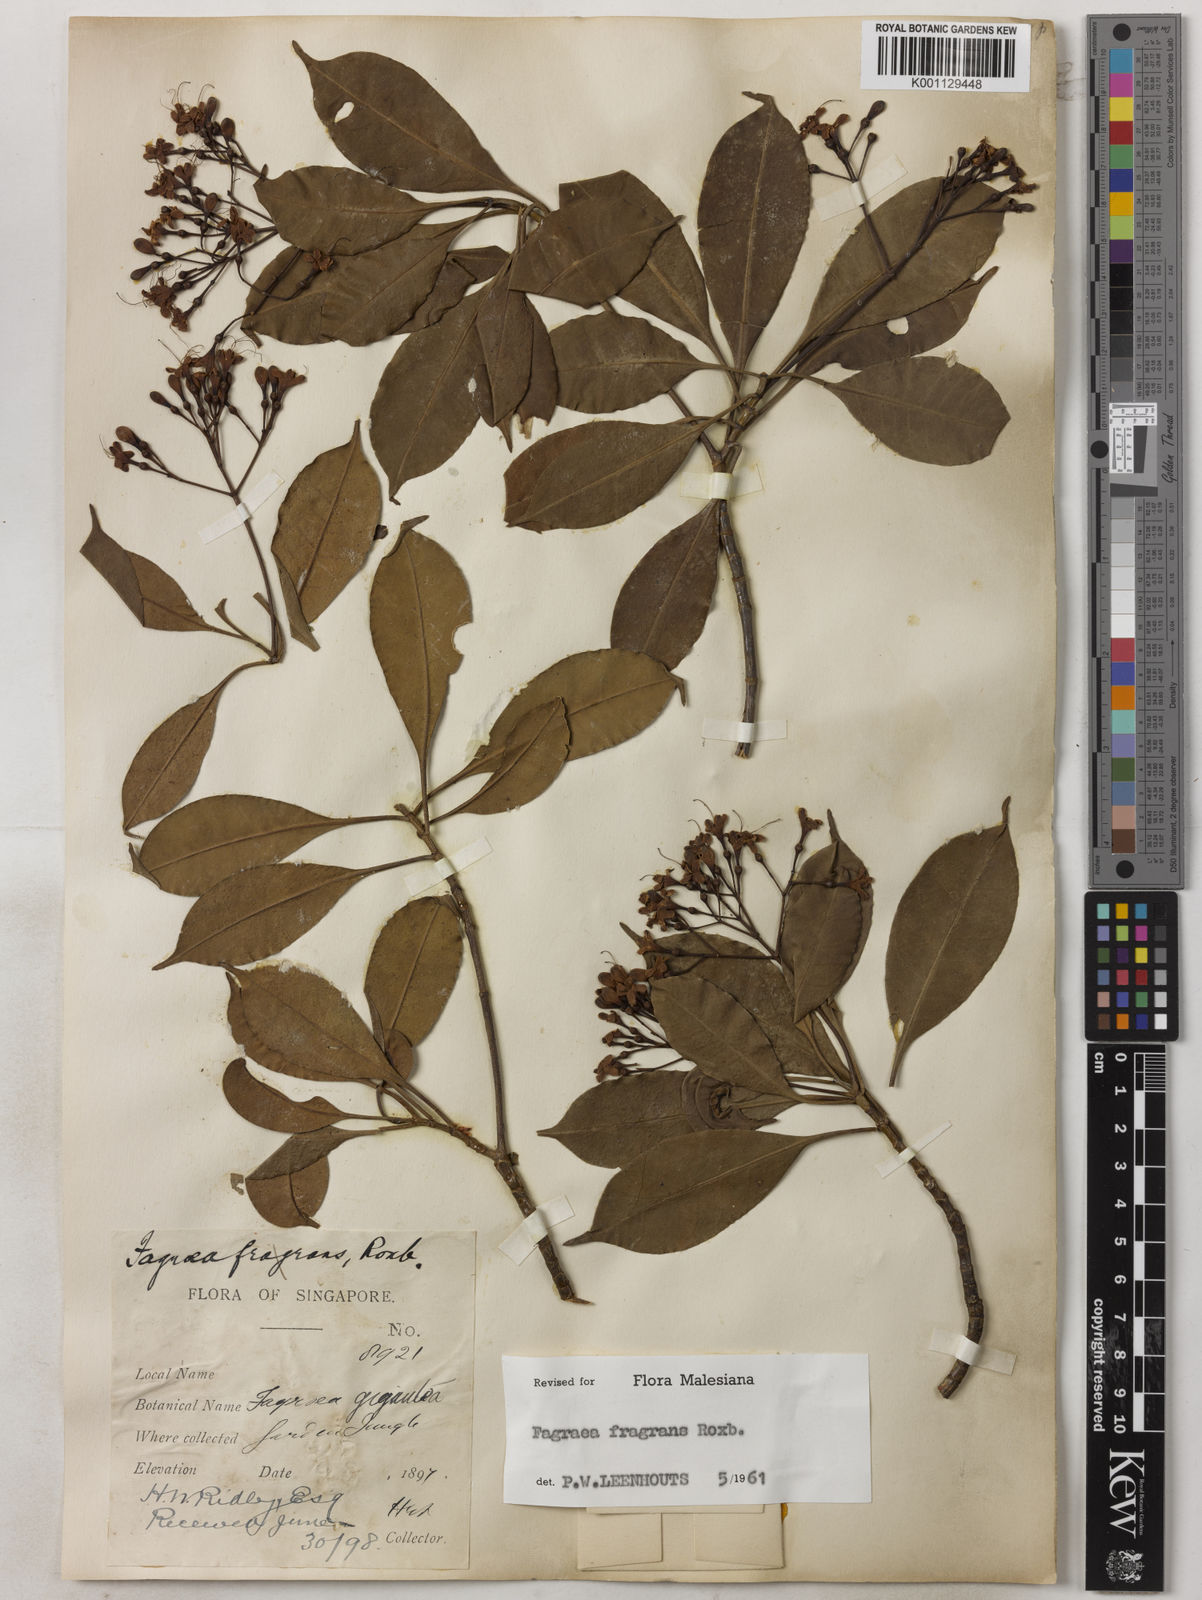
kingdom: Plantae
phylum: Tracheophyta
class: Magnoliopsida
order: Gentianales
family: Gentianaceae
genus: Cyrtophyllum
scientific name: Cyrtophyllum giganteum
